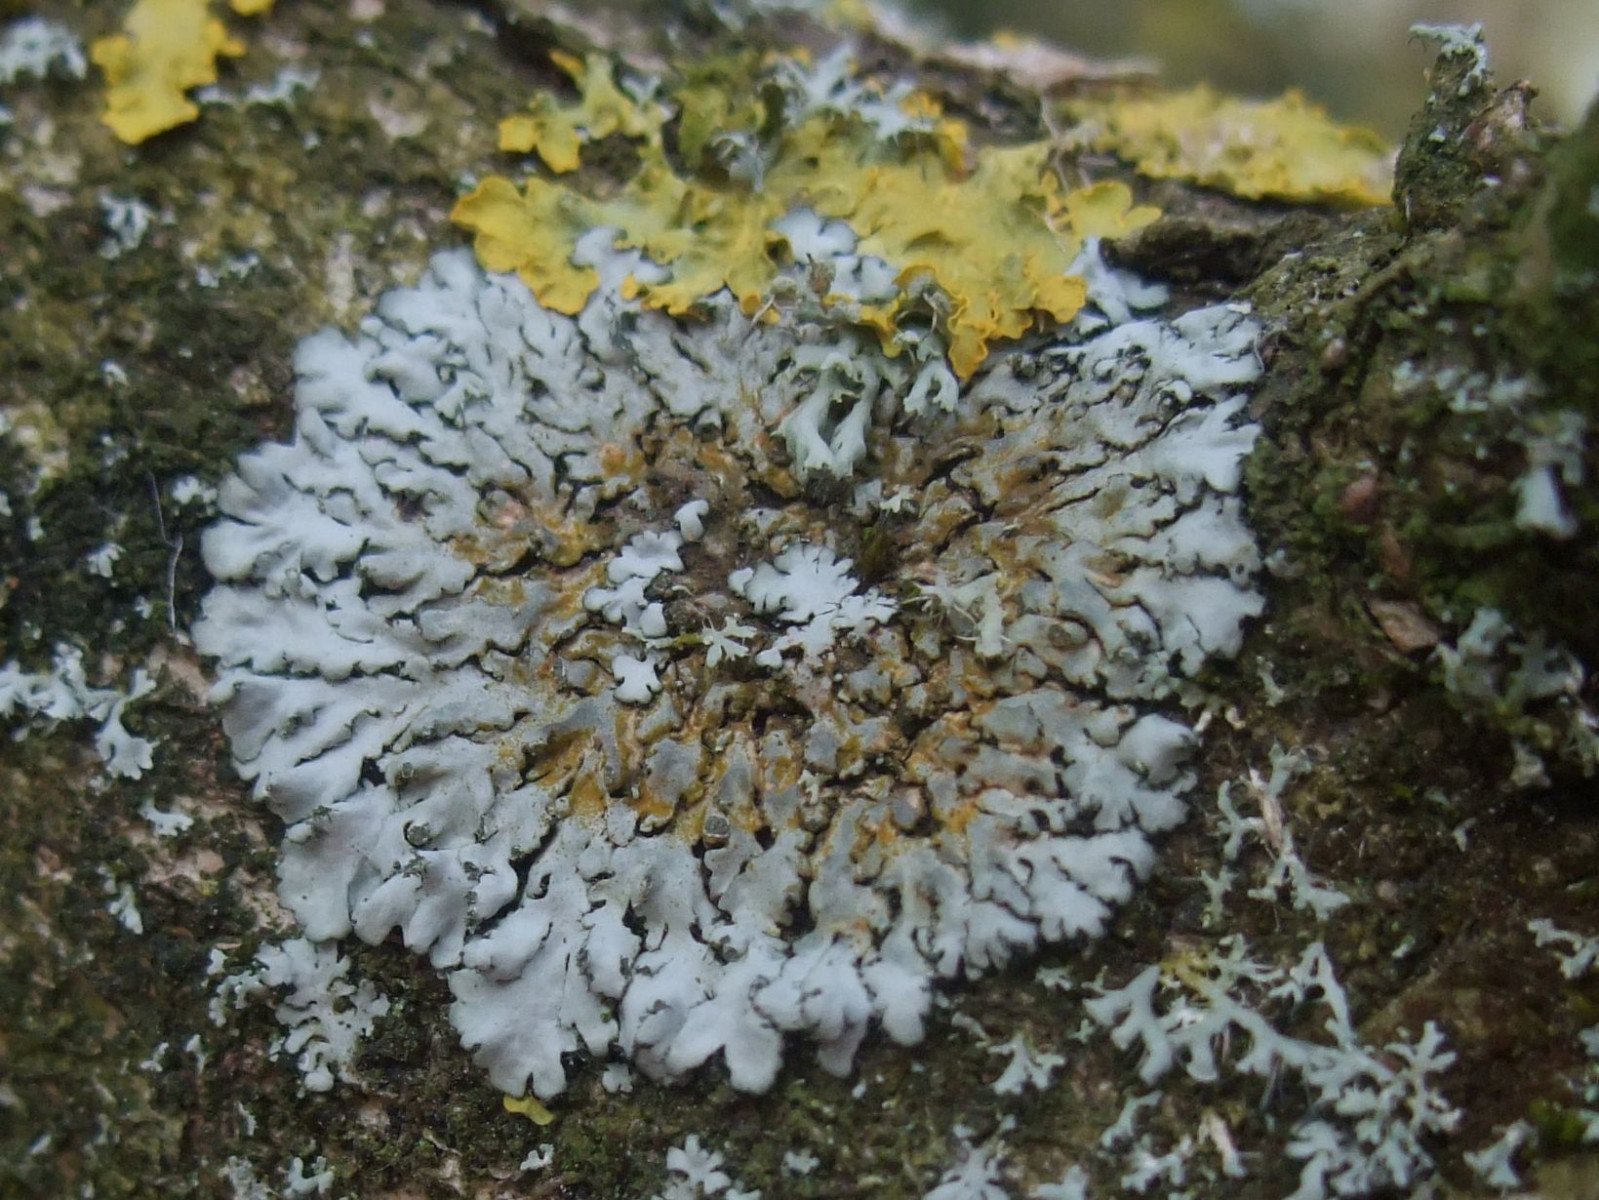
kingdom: Fungi
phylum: Ascomycota
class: Lecanoromycetes
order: Caliciales
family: Physciaceae
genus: Phaeophyscia
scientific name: Phaeophyscia orbicularis
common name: grågrøn rosetlav
